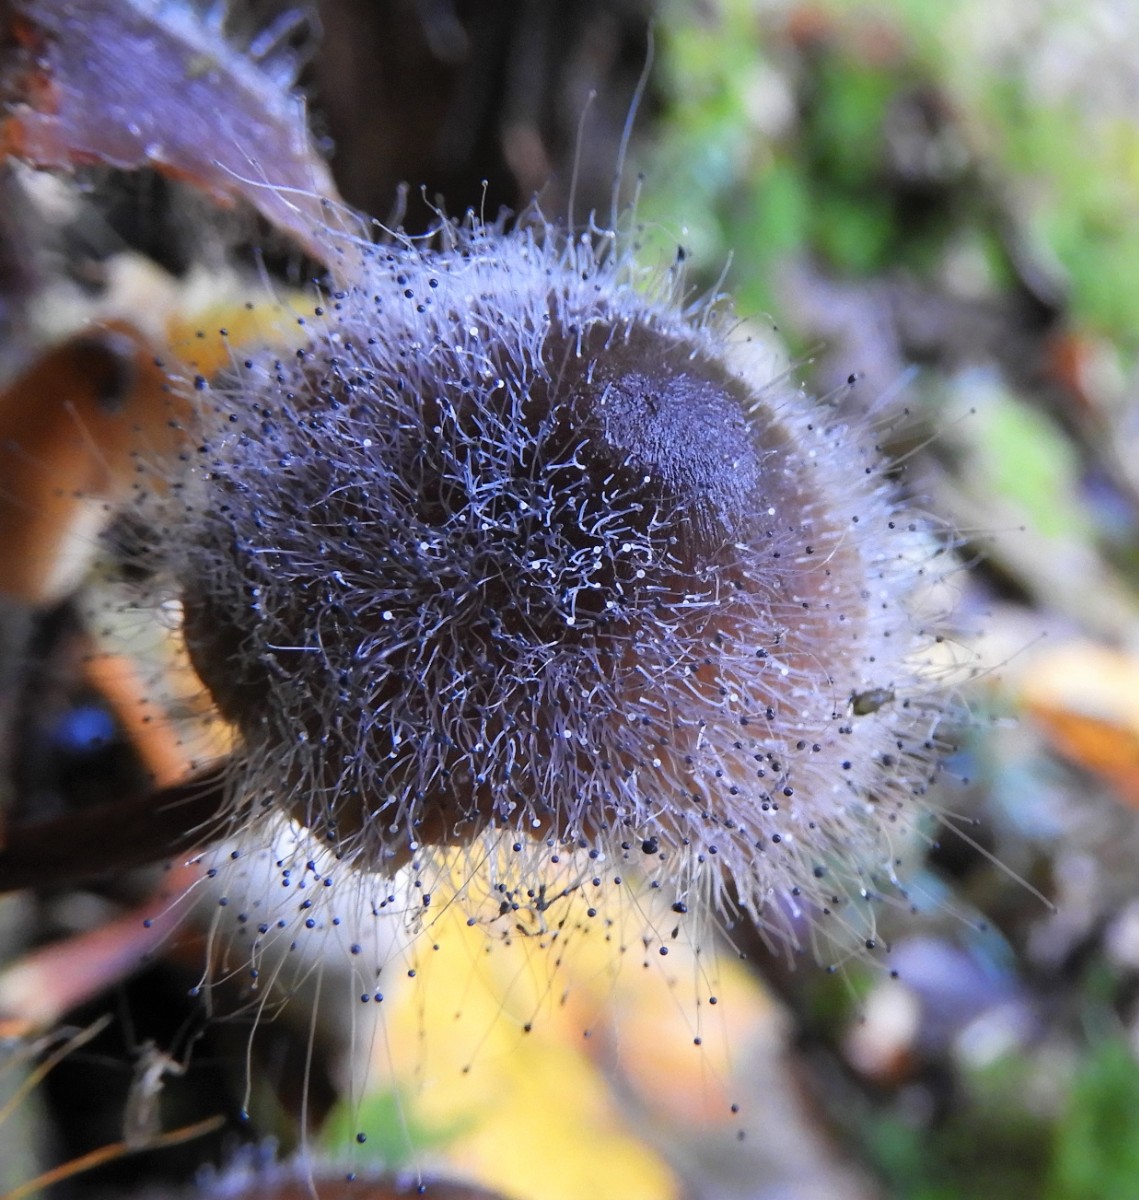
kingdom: Fungi
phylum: Mucoromycota
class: Mucoromycetes
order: Mucorales
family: Phycomycetaceae
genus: Spinellus
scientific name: Spinellus fusiger
